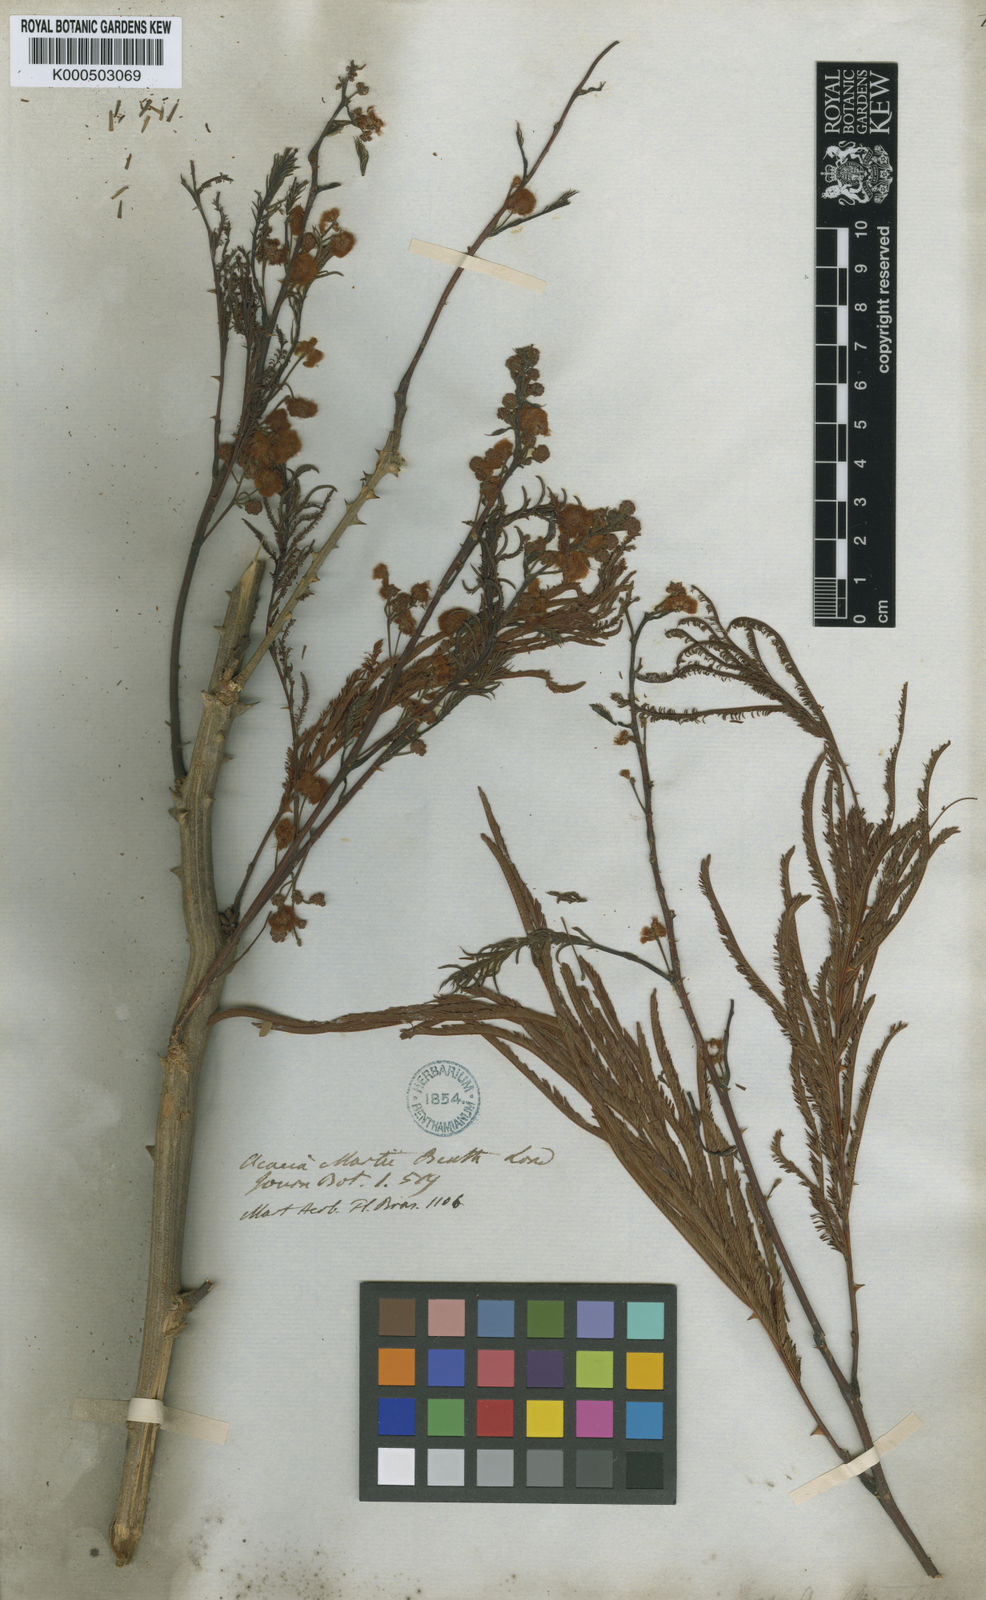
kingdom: Plantae
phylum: Tracheophyta
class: Magnoliopsida
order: Fabales
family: Fabaceae
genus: Senegalia
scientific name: Senegalia martii
